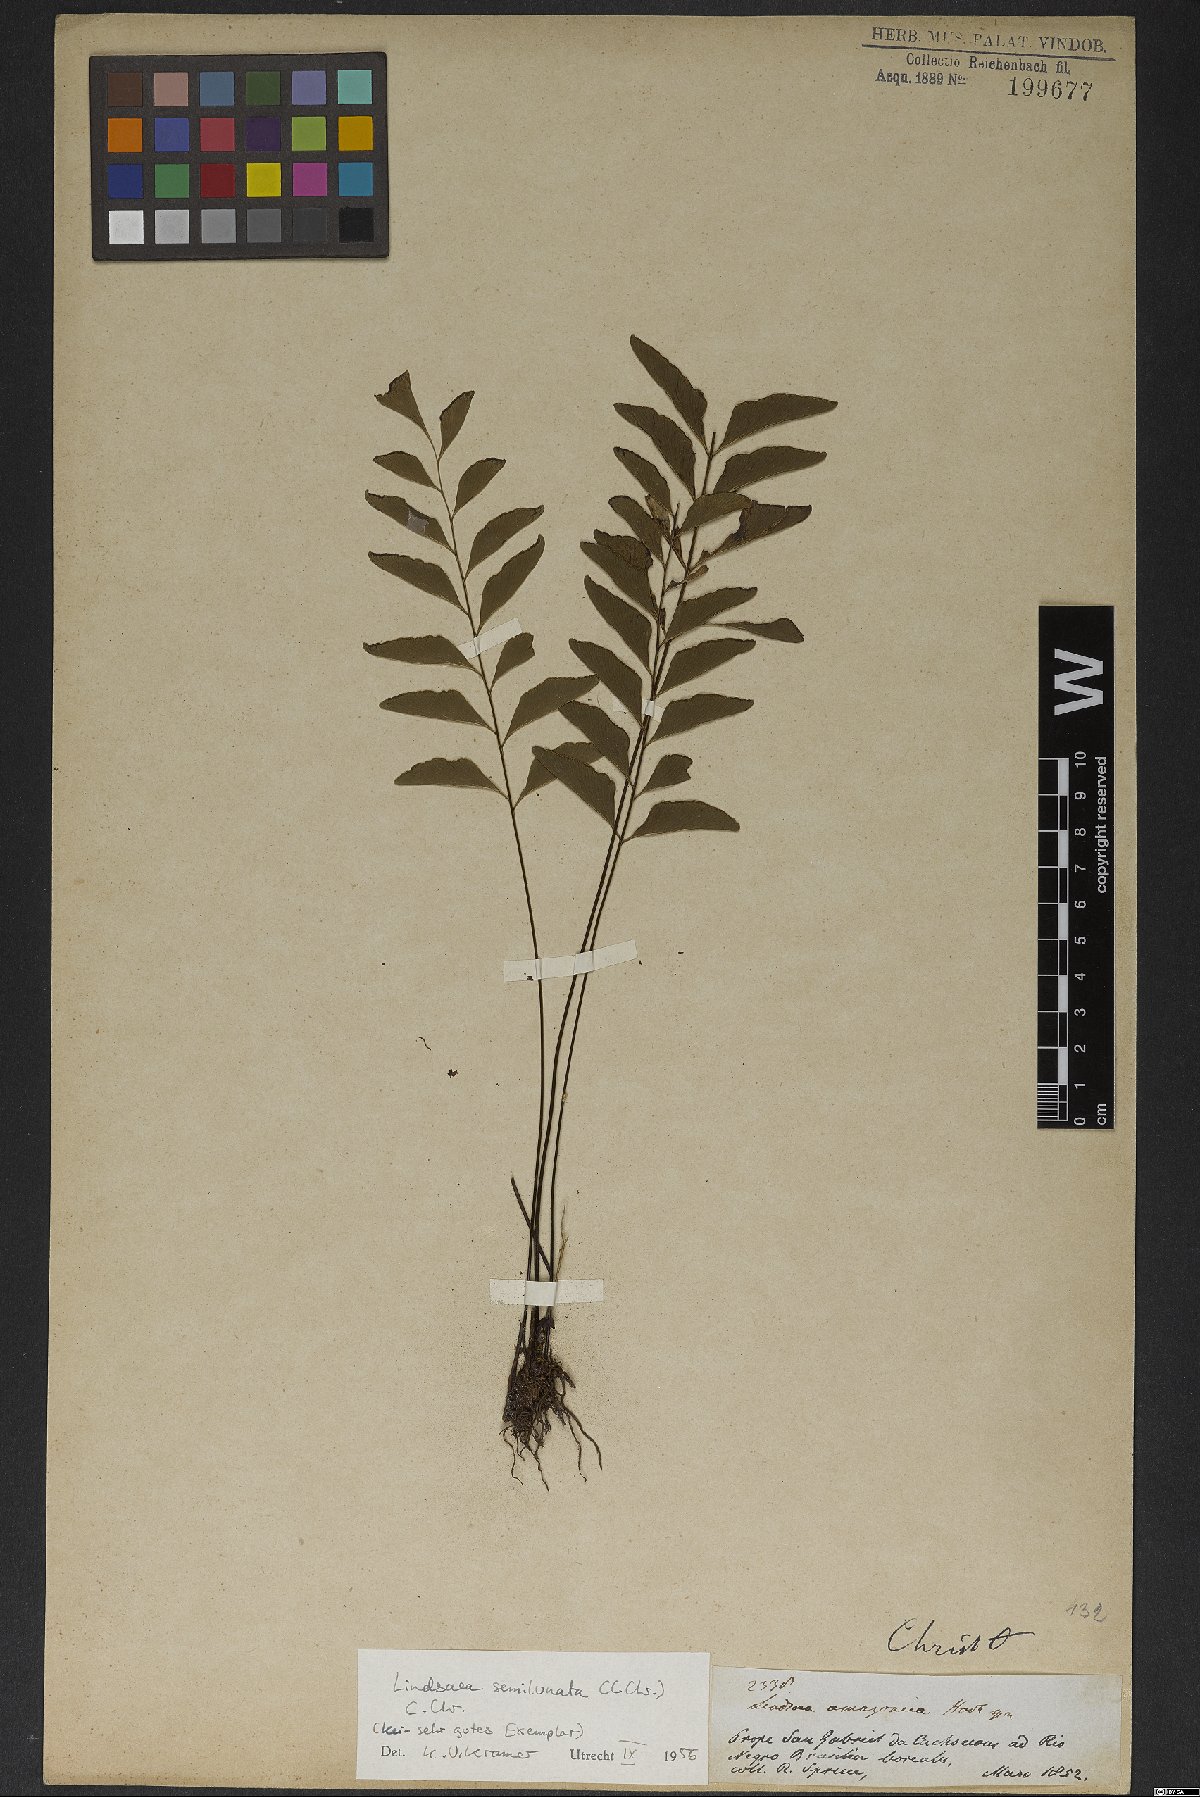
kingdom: Plantae
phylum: Tracheophyta
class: Polypodiopsida
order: Polypodiales
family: Lindsaeaceae
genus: Lindsaea
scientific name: Lindsaea semilunata
